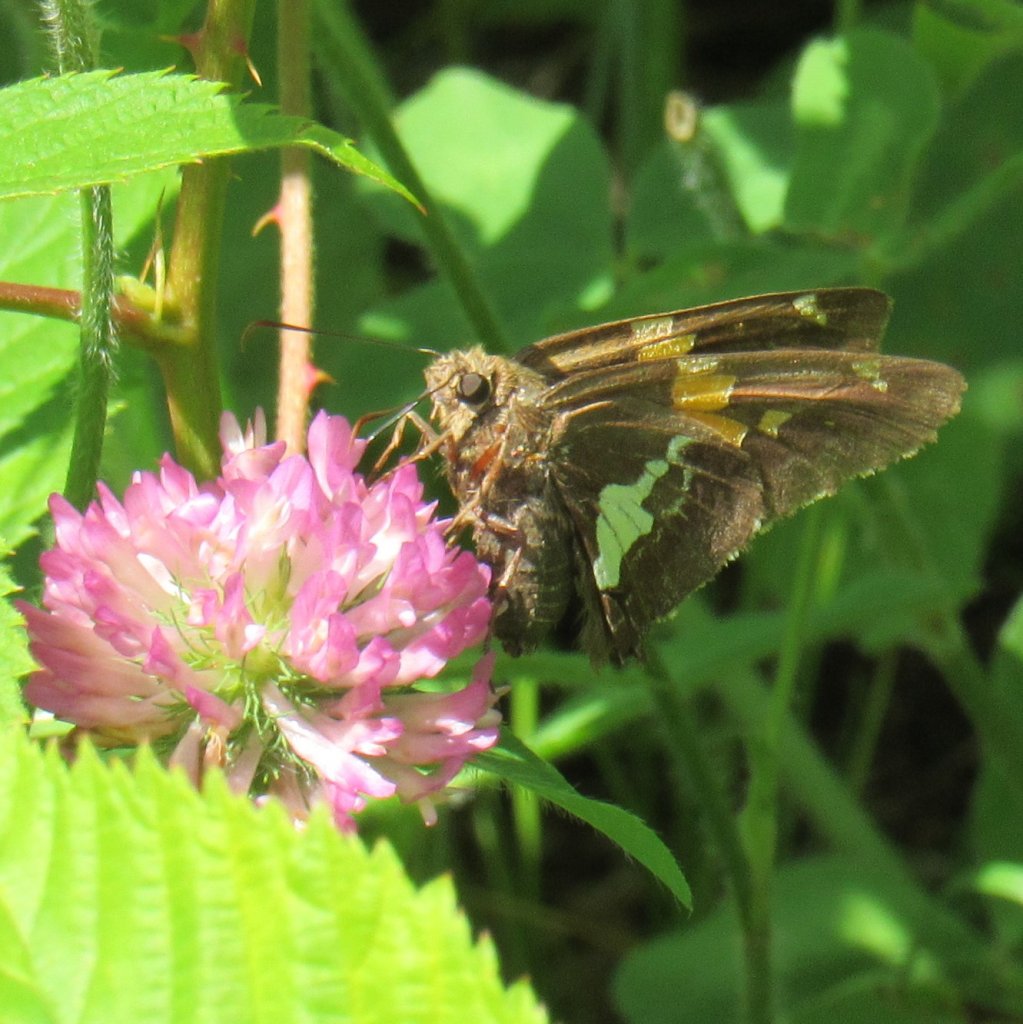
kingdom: Animalia
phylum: Arthropoda
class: Insecta
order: Lepidoptera
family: Hesperiidae
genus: Epargyreus
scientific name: Epargyreus clarus
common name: Silver-spotted Skipper
